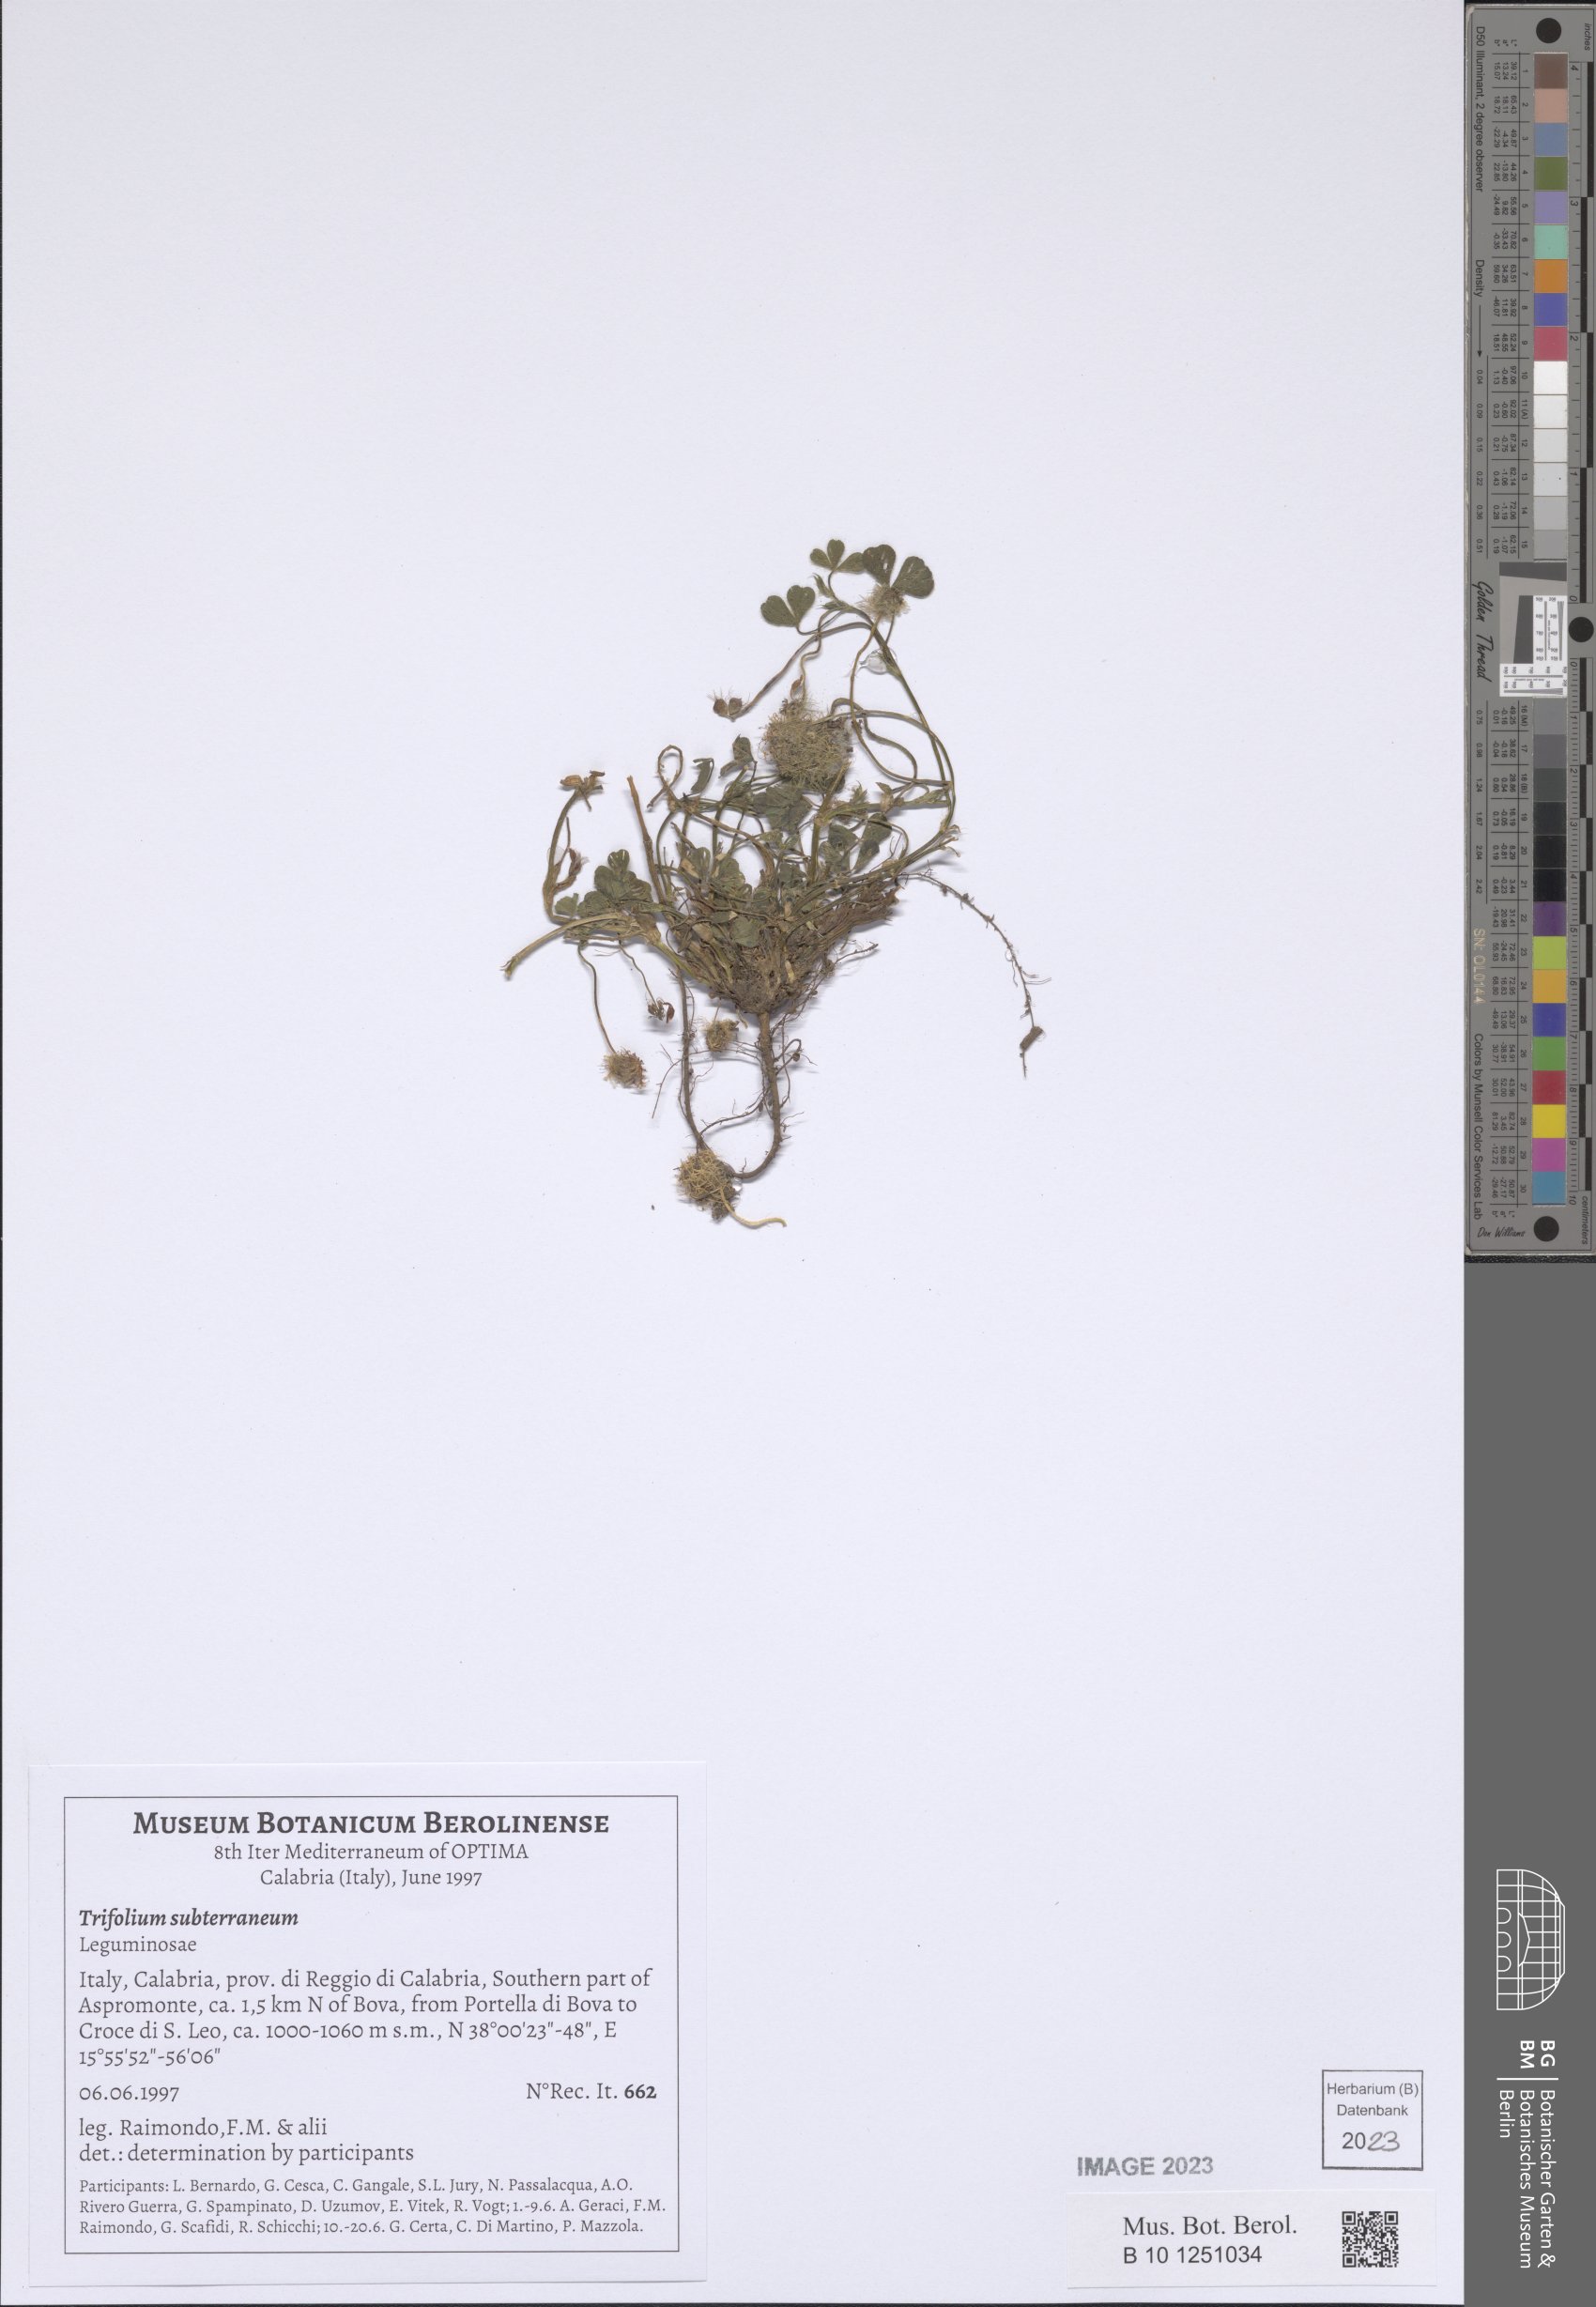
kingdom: Plantae
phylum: Tracheophyta
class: Magnoliopsida
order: Fabales
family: Fabaceae
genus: Trifolium
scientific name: Trifolium subterraneum
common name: Subterranean clover
